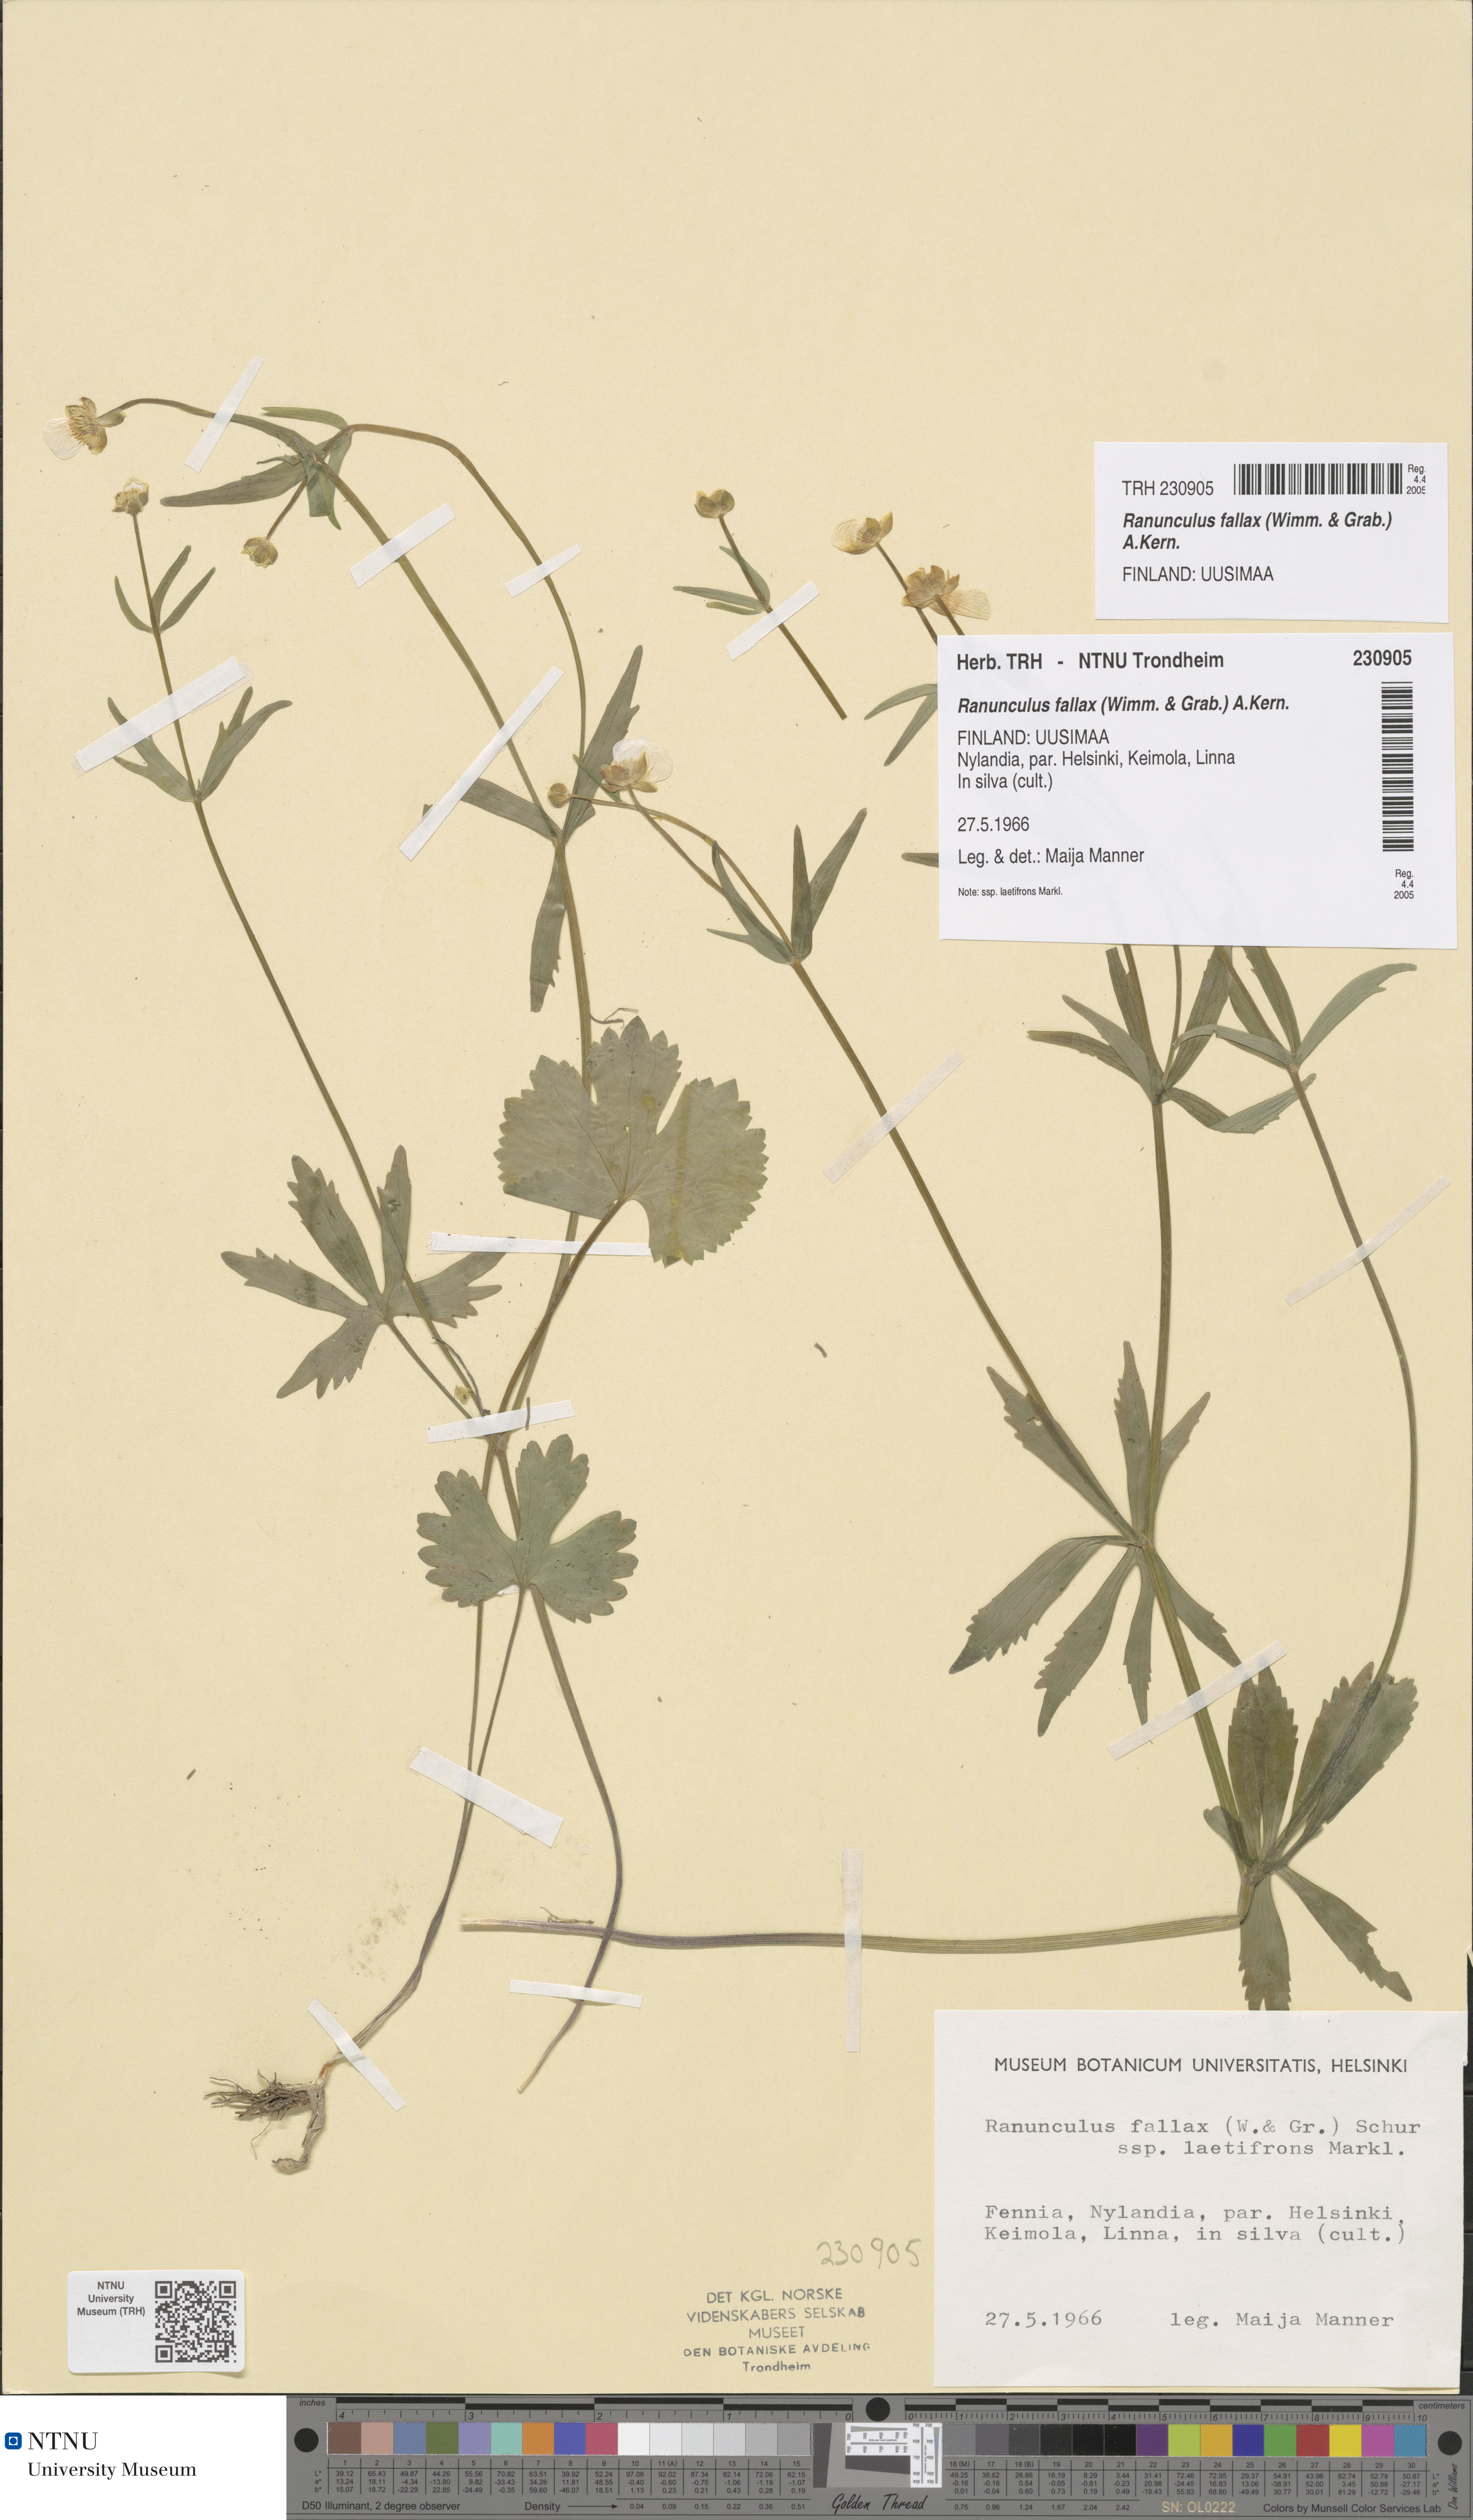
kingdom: Plantae
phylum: Tracheophyta
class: Magnoliopsida
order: Ranunculales
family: Ranunculaceae
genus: Ranunculus
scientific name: Ranunculus fallax
